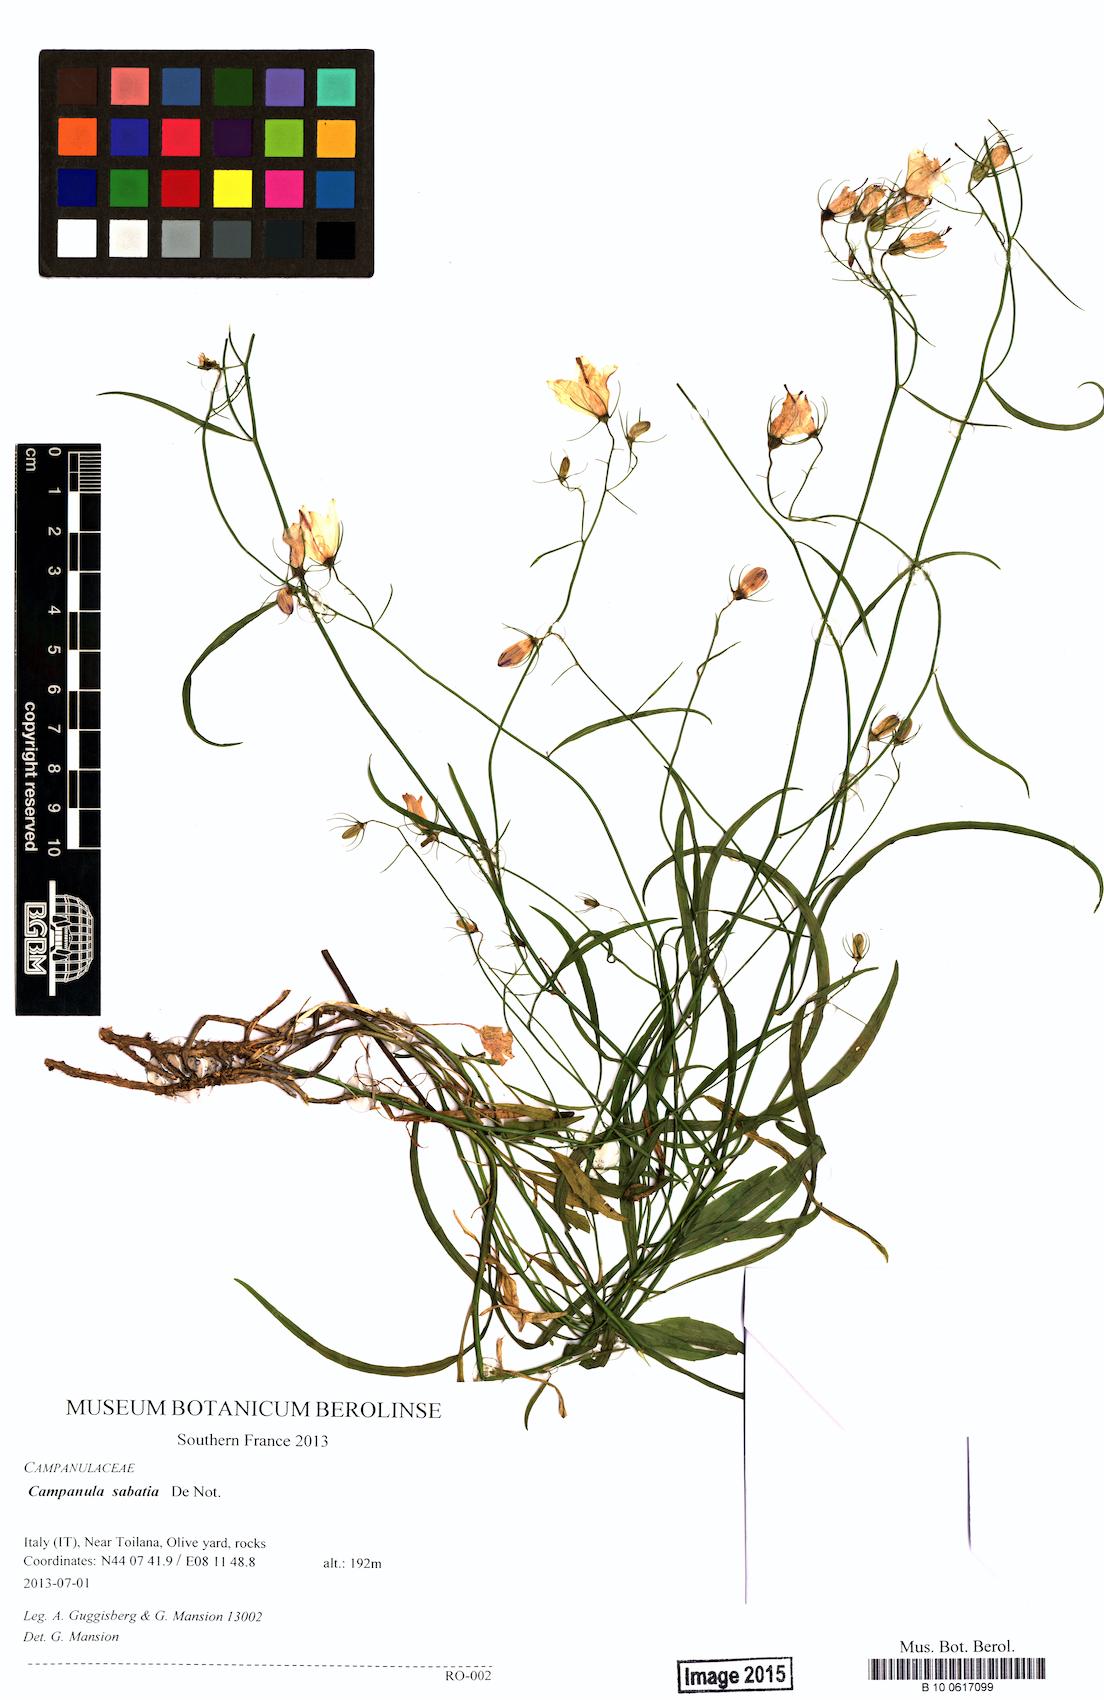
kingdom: Plantae
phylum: Tracheophyta
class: Magnoliopsida
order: Asterales
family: Campanulaceae
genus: Campanula
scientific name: Campanula sabatia
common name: Savona hare-bell
